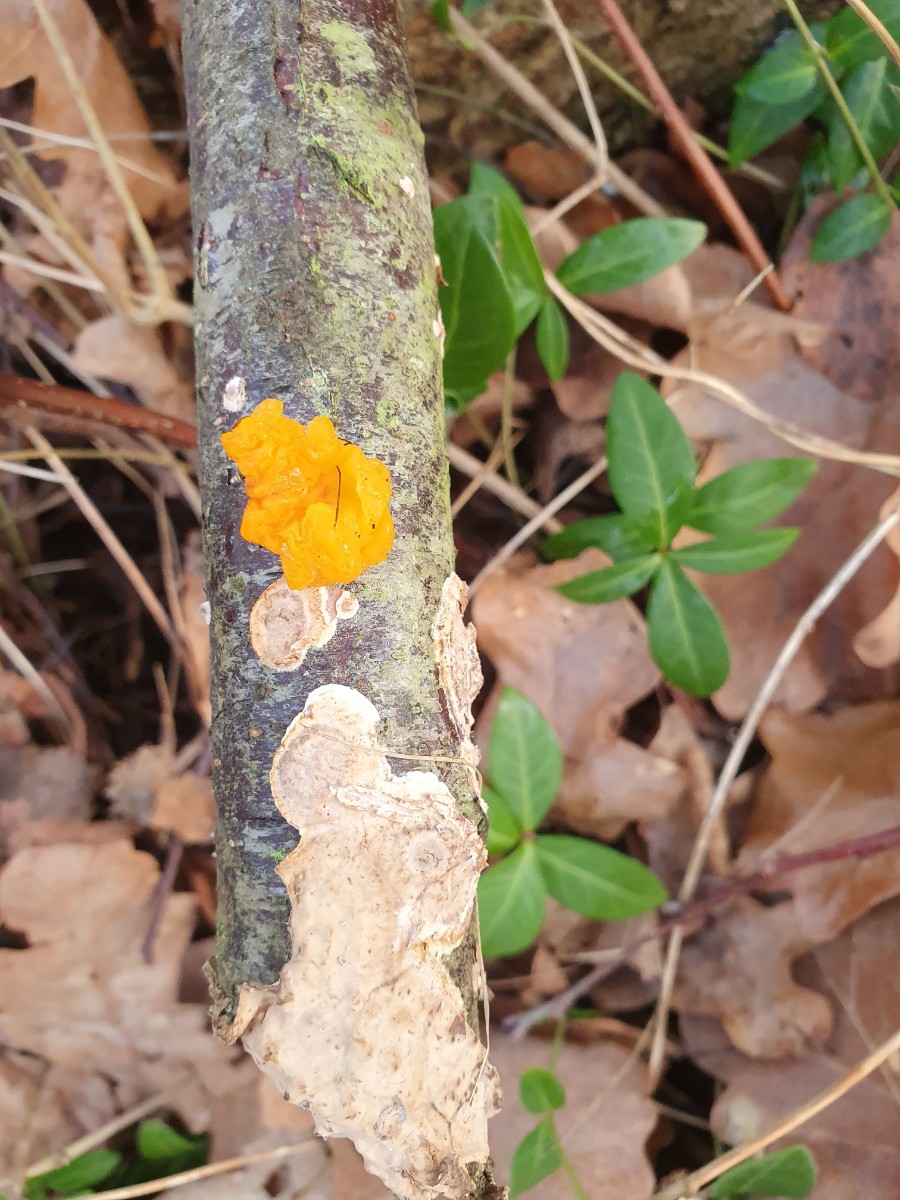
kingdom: Fungi
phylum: Basidiomycota
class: Tremellomycetes
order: Tremellales
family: Tremellaceae
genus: Tremella
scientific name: Tremella mesenterica
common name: gul bævresvamp
